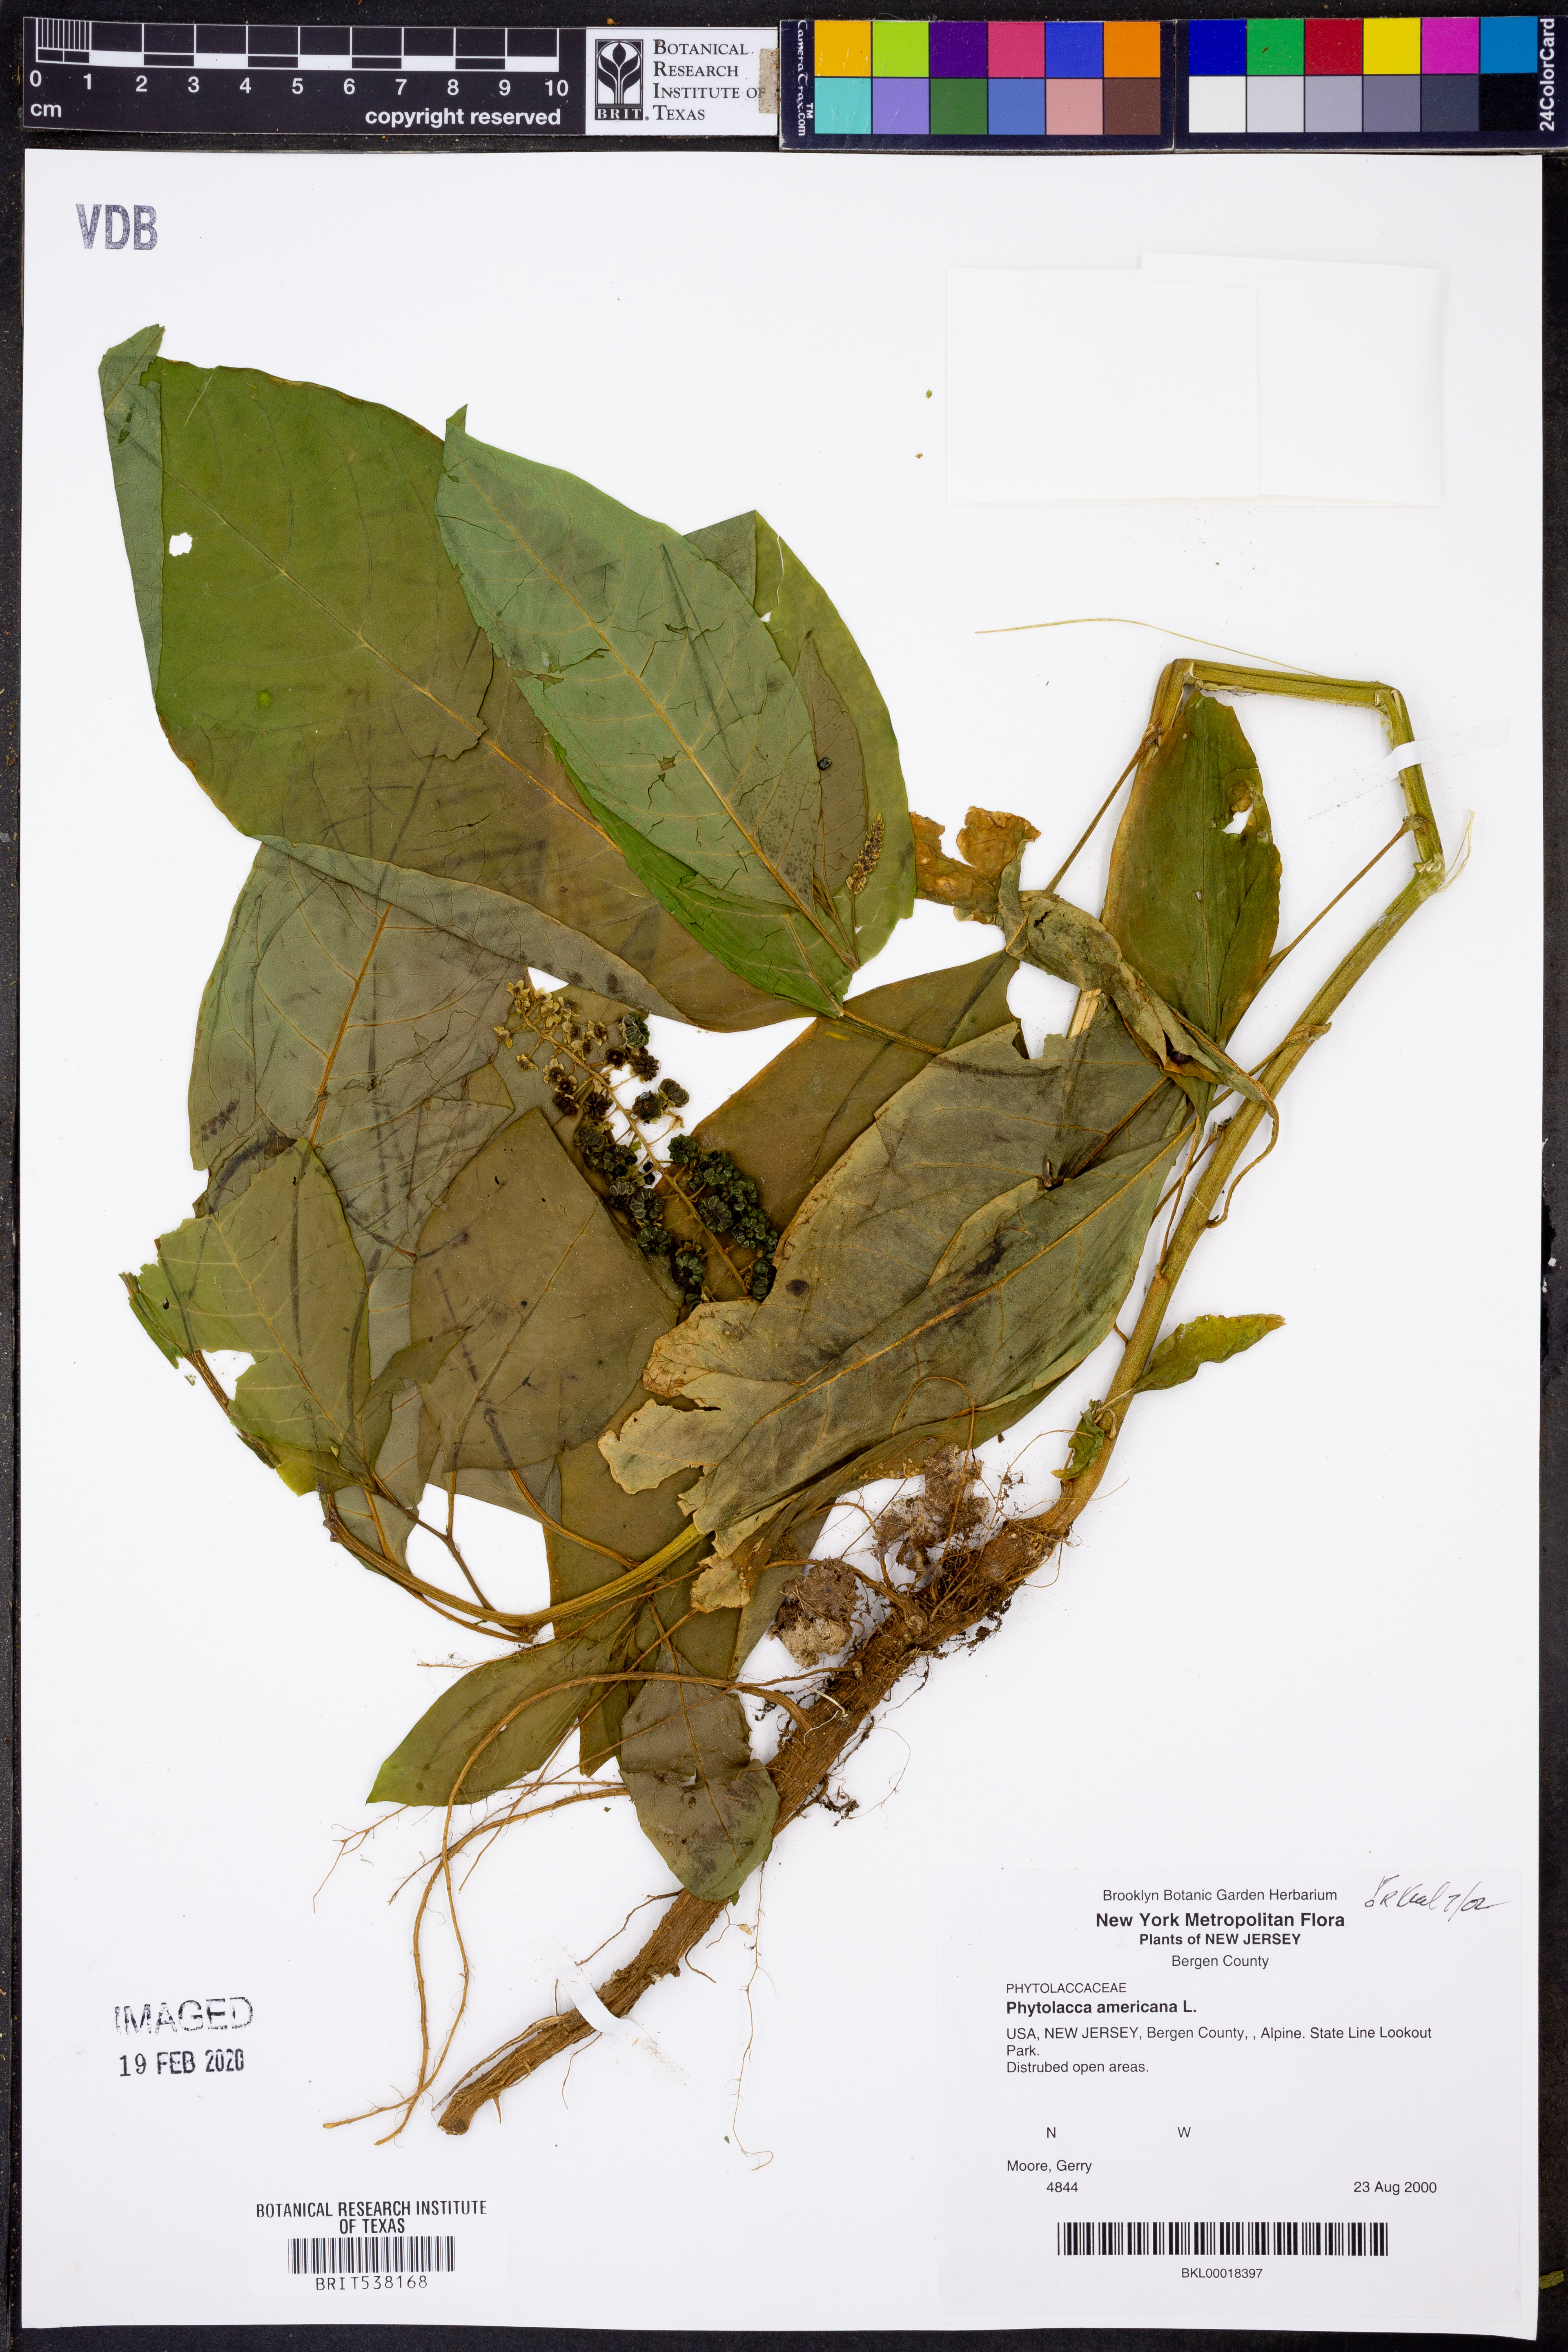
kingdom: Plantae
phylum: Tracheophyta
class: Magnoliopsida
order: Caryophyllales
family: Phytolaccaceae
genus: Phytolacca
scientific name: Phytolacca americana
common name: American pokeweed
